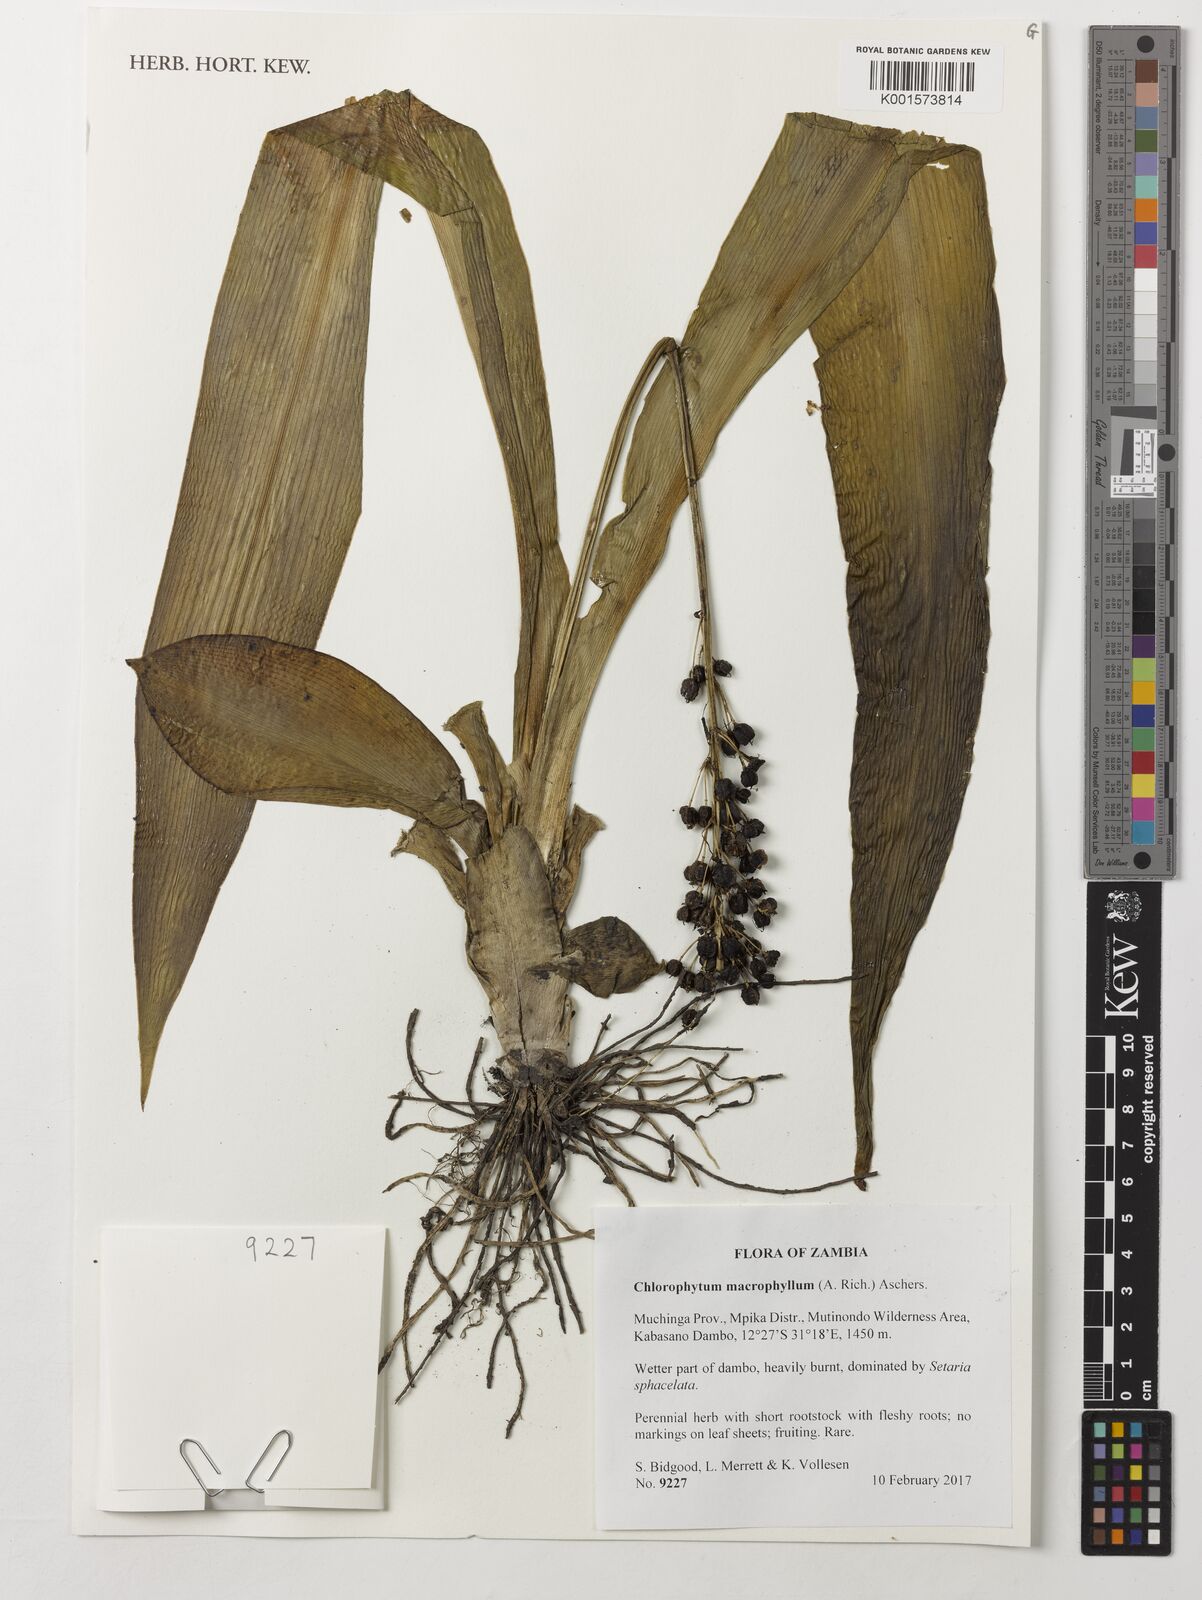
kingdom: Plantae
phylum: Tracheophyta
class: Liliopsida
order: Asparagales
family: Asparagaceae
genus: Chlorophytum
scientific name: Chlorophytum macrophyllum
